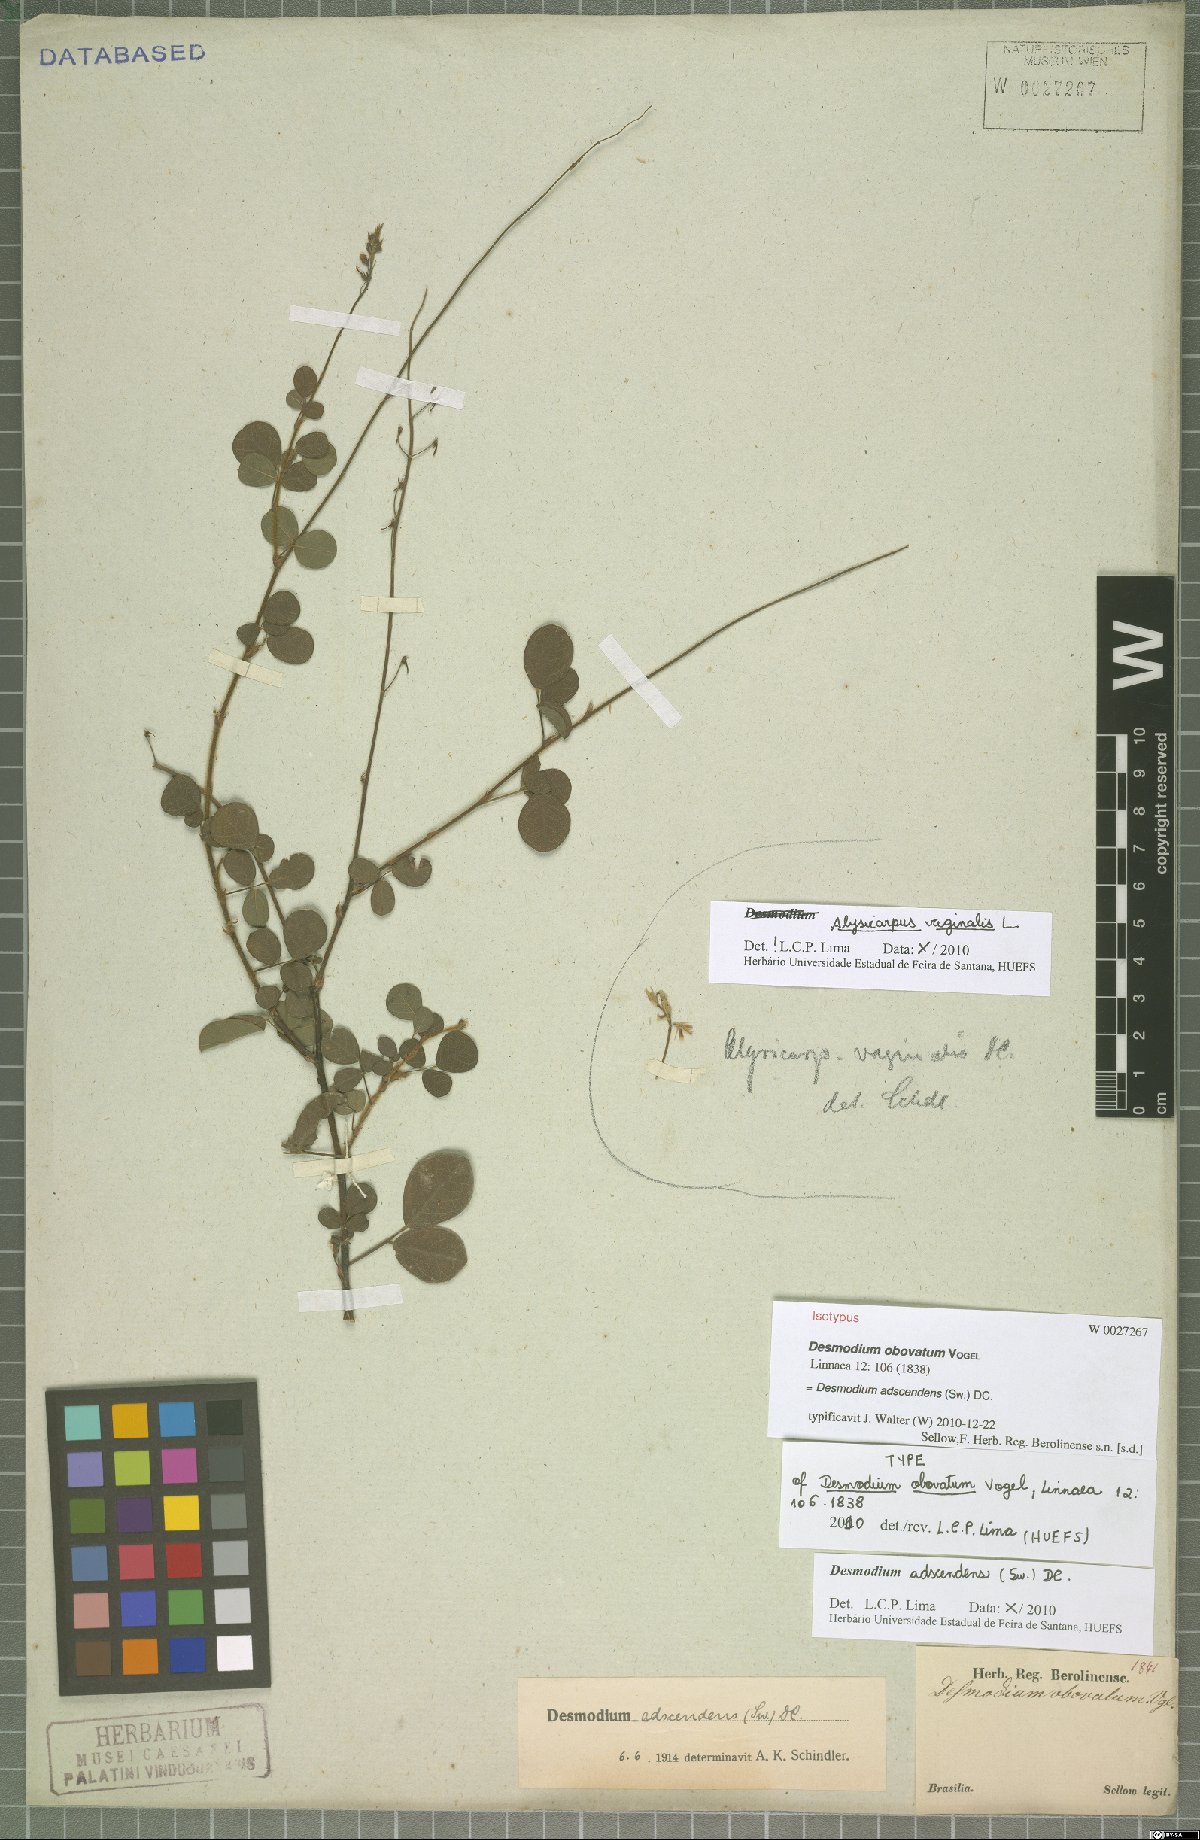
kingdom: Plantae
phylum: Tracheophyta
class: Magnoliopsida
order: Fabales
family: Fabaceae
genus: Grona
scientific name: Grona adscendens
